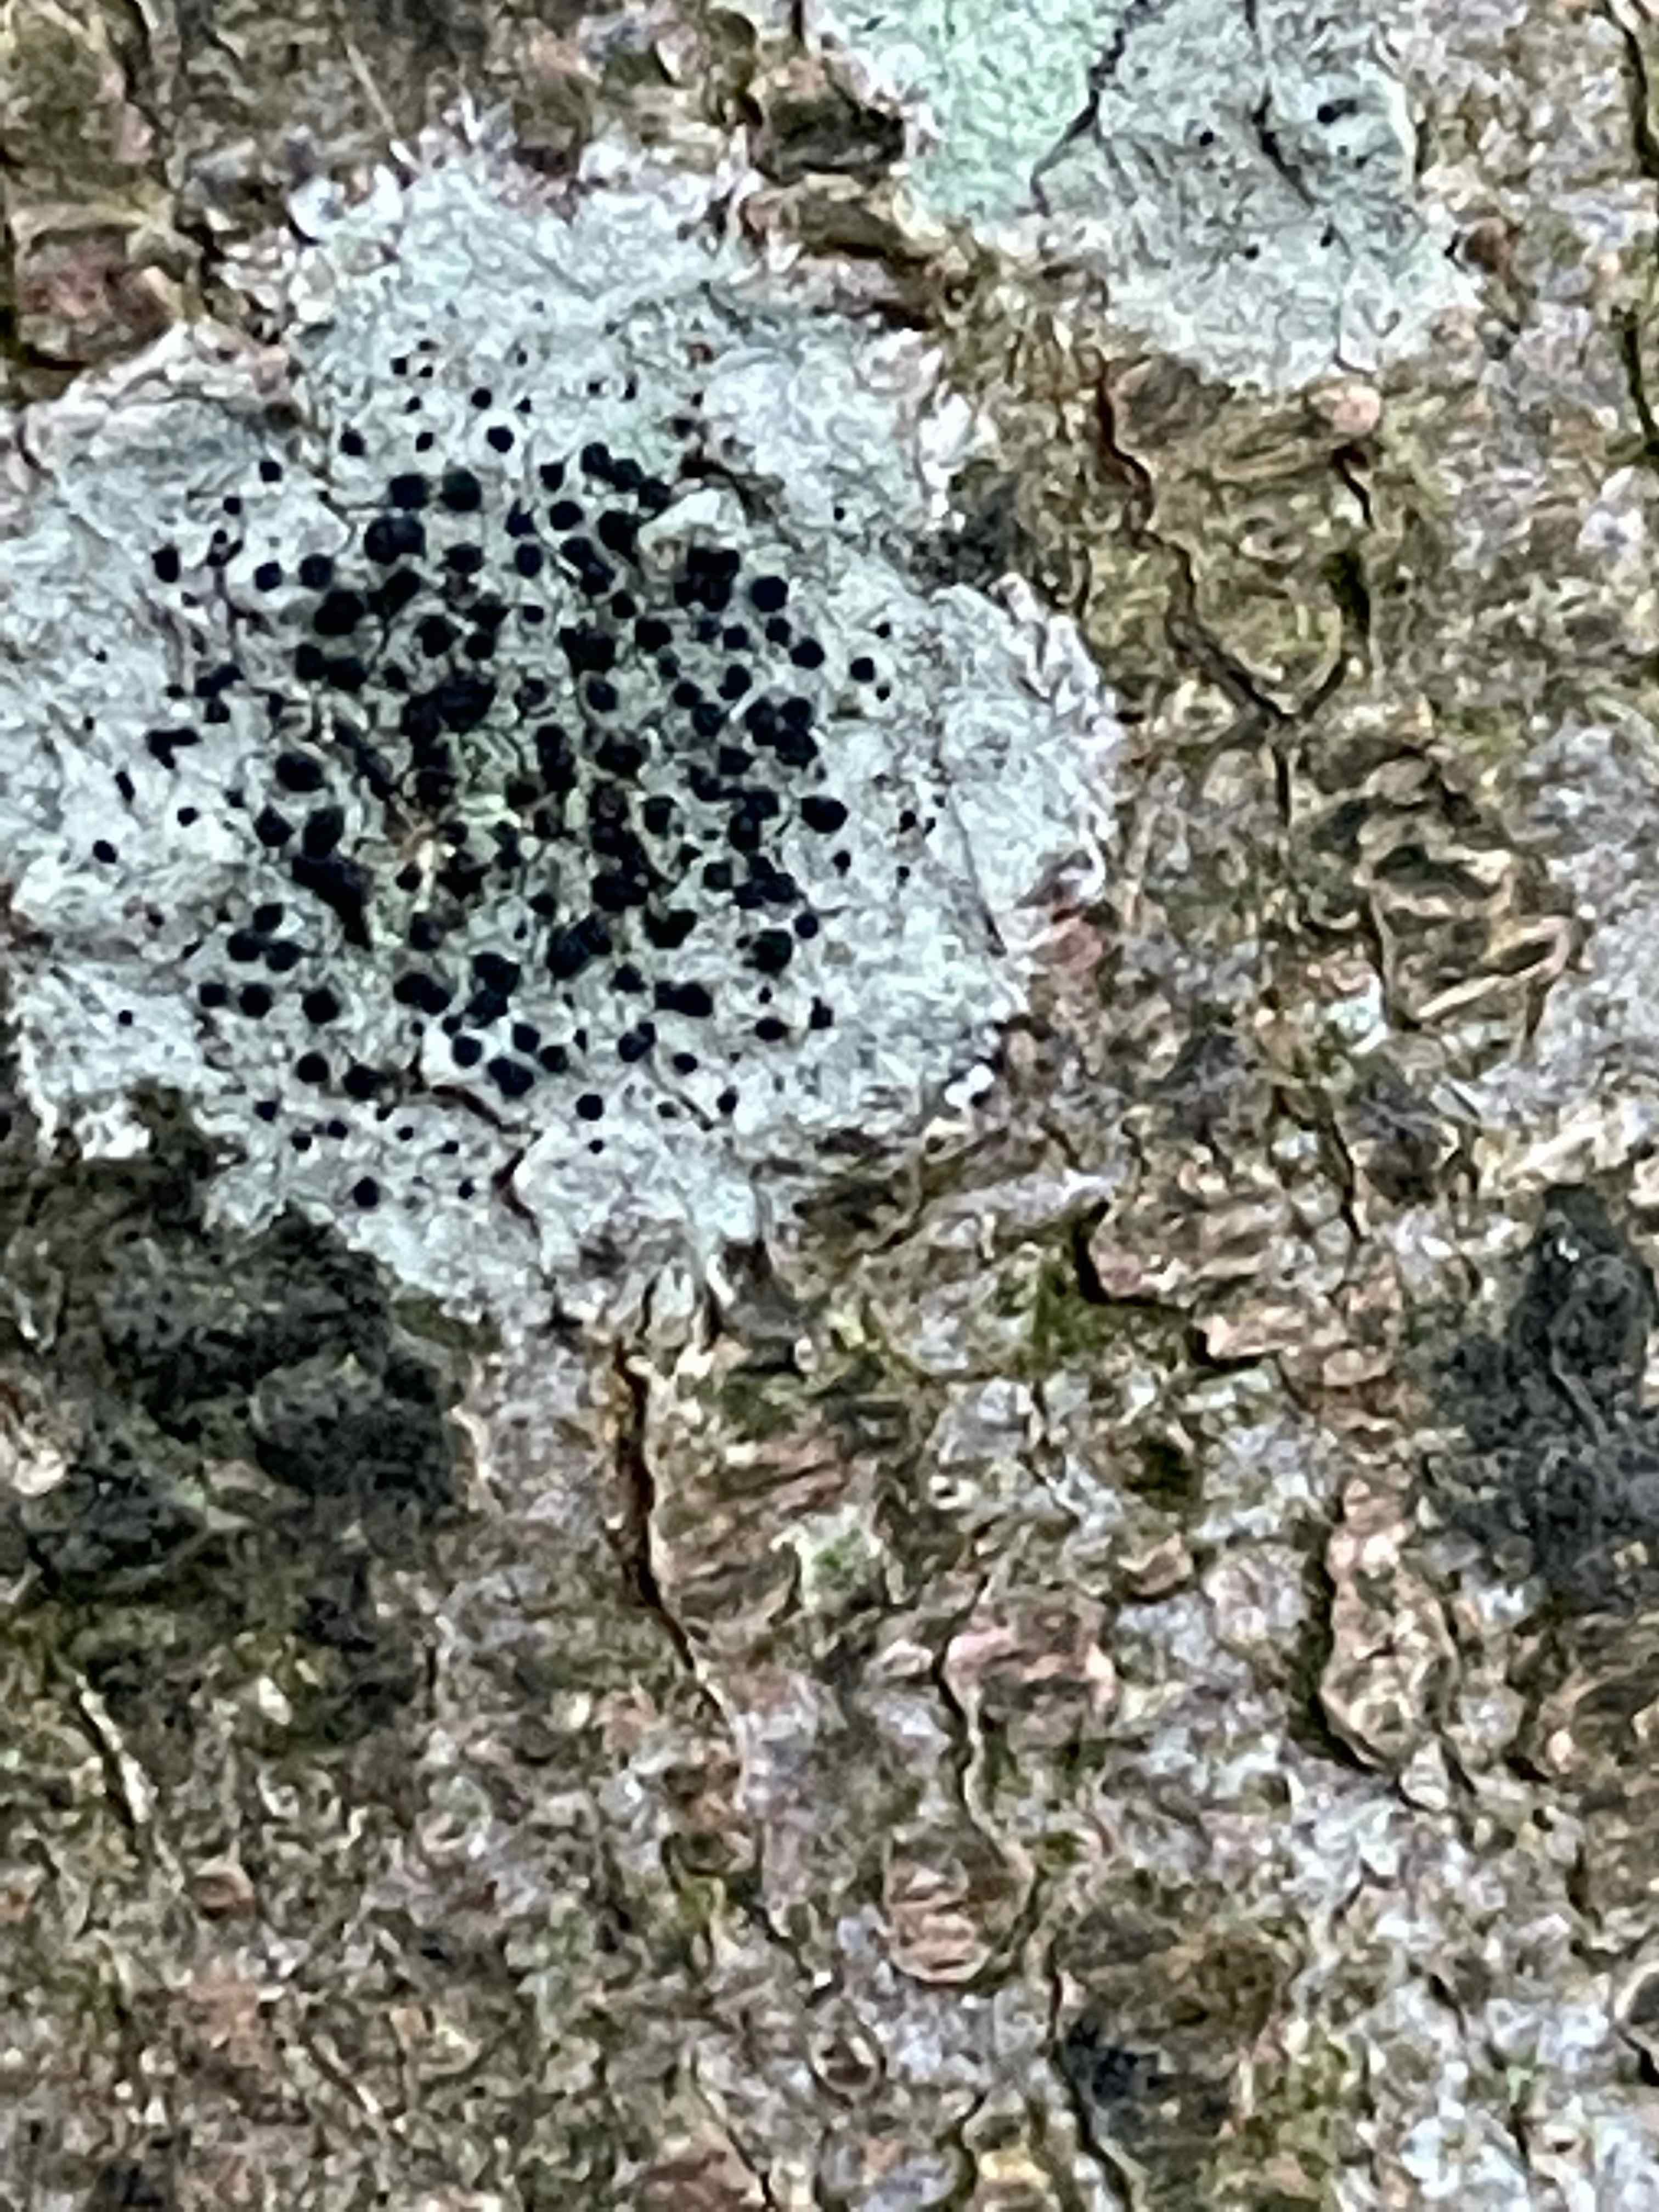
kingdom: Fungi
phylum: Ascomycota
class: Lecanoromycetes
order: Lecanorales
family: Lecanoraceae
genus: Lecidella
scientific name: Lecidella elaeochroma
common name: grågrøn skivelav
